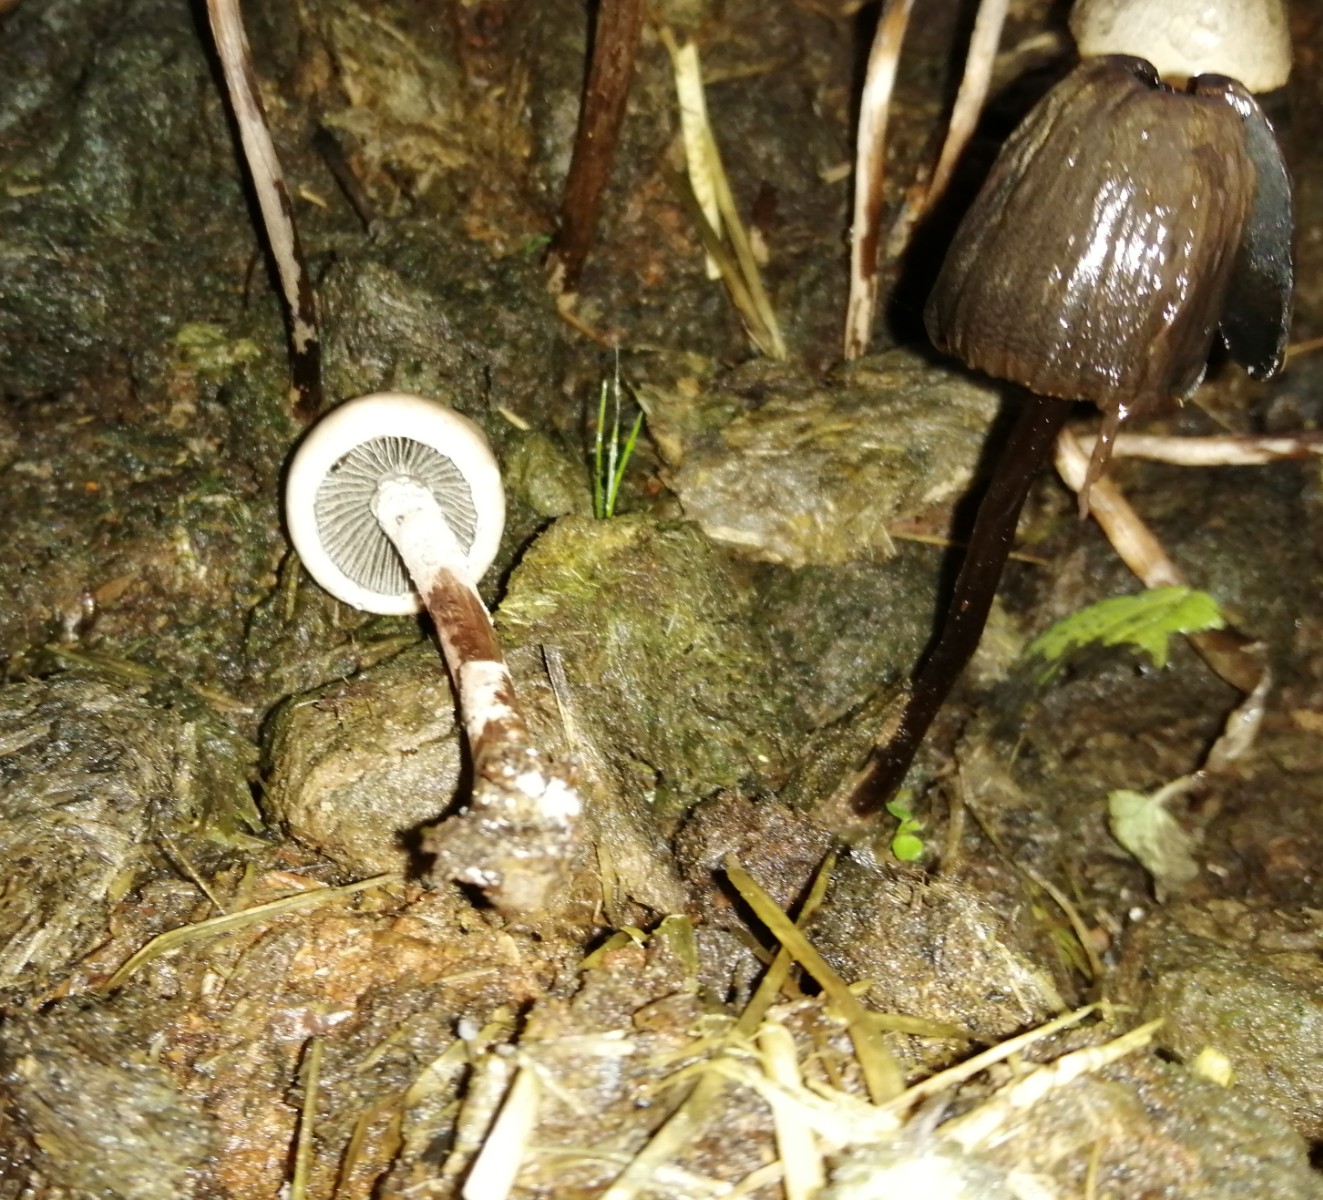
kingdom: Fungi
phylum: Basidiomycota
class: Agaricomycetes
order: Agaricales
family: Bolbitiaceae
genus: Panaeolus
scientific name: Panaeolus papilionaceus
